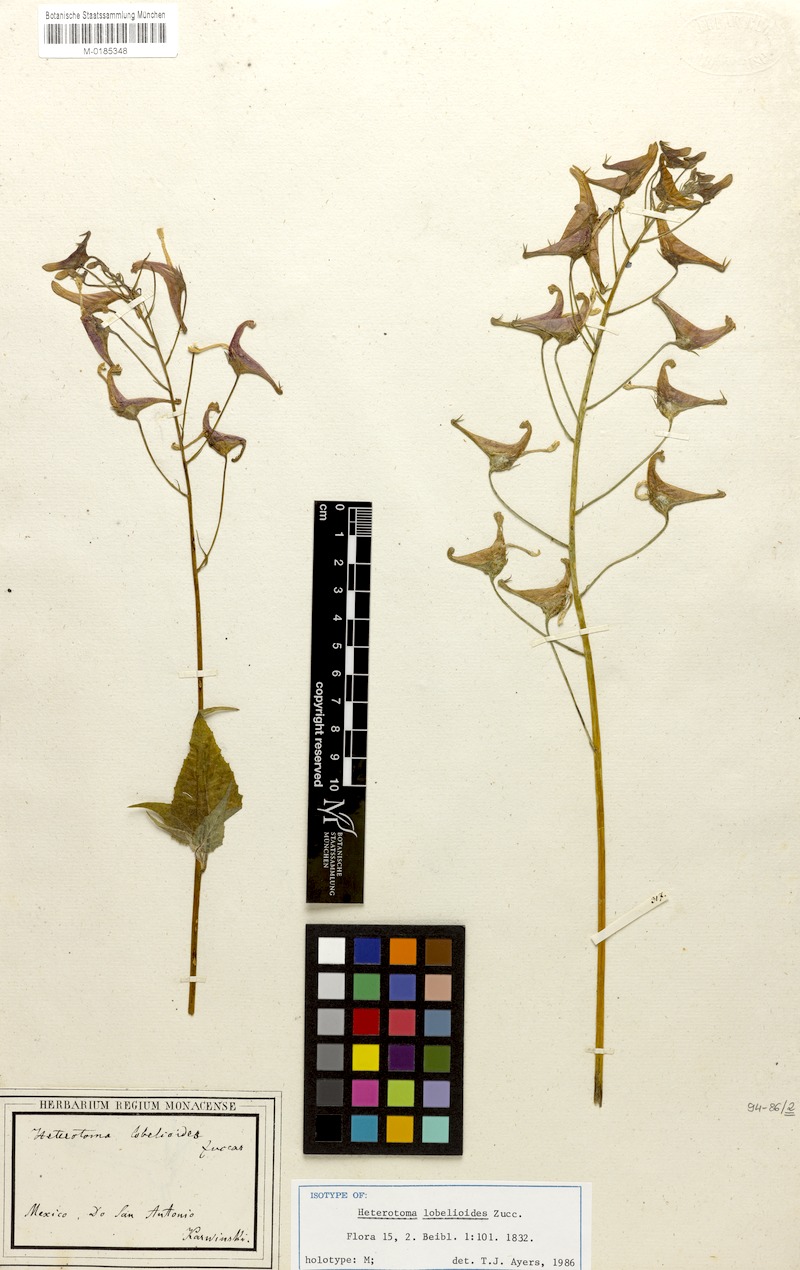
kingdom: Plantae
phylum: Tracheophyta
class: Magnoliopsida
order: Asterales
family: Campanulaceae
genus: Heterotoma
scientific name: Heterotoma lobelioides
